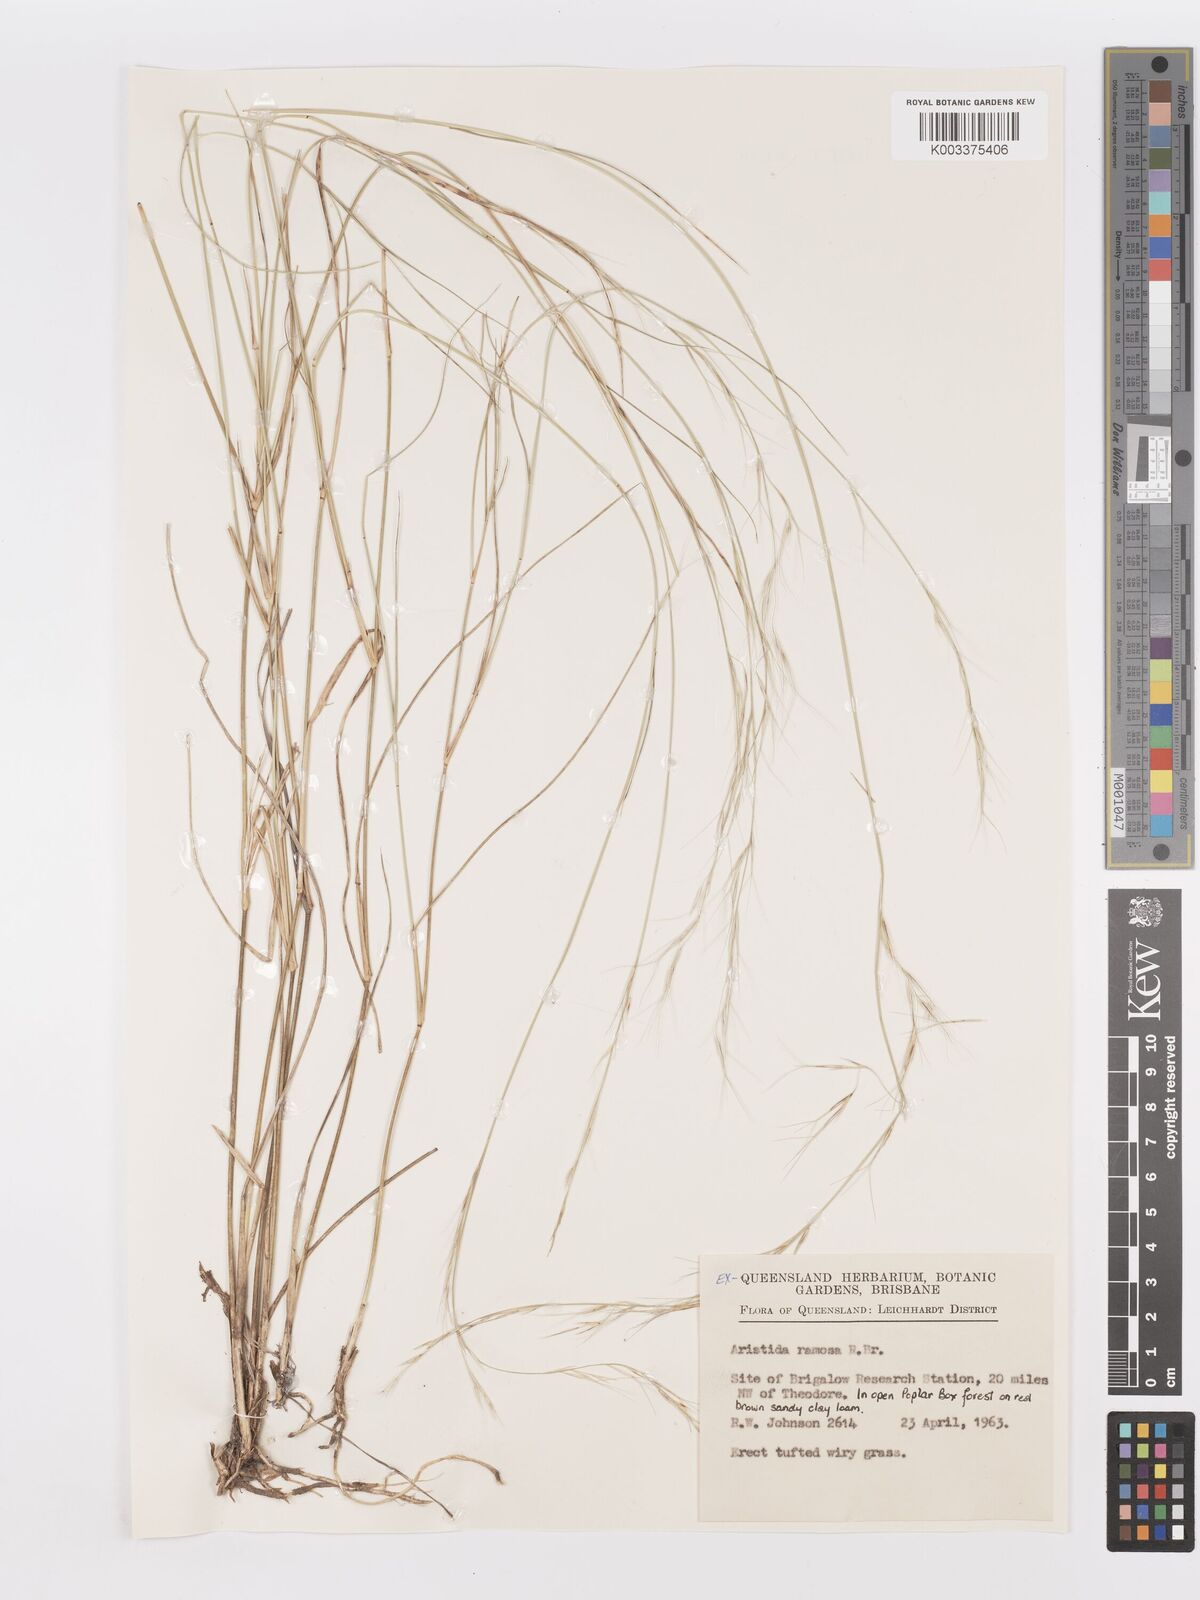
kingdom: Plantae
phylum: Tracheophyta
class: Liliopsida
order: Poales
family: Poaceae
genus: Aristida
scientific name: Aristida ramosa
